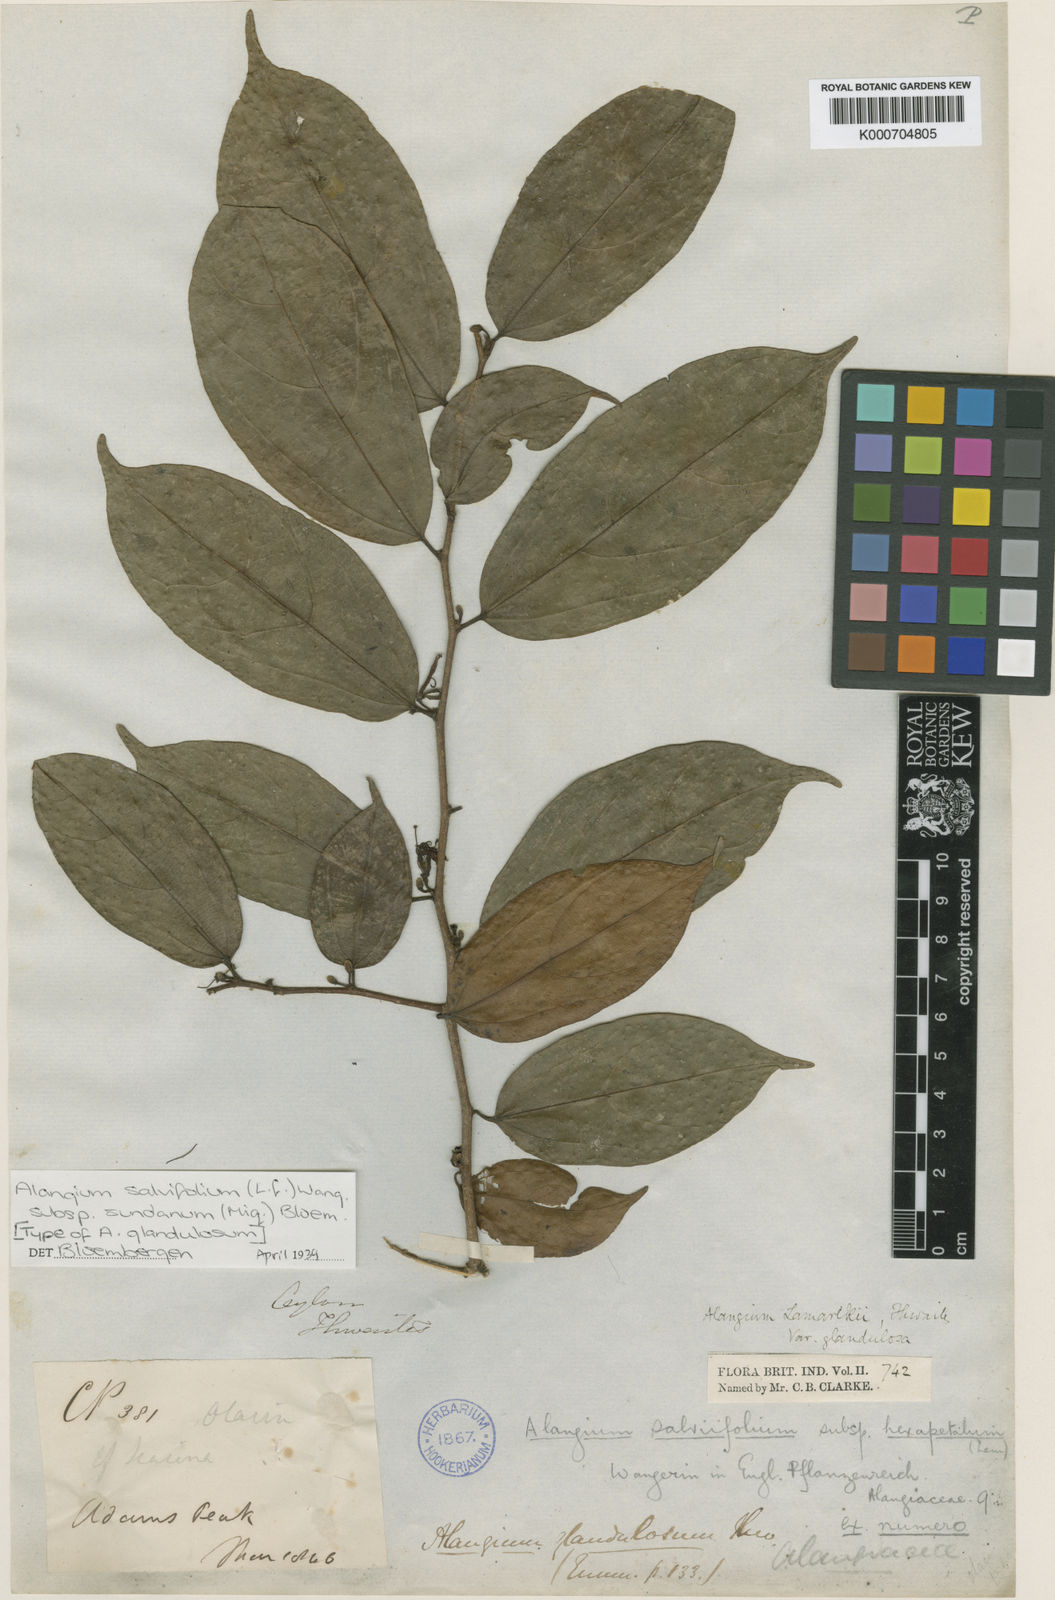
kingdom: Plantae
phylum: Tracheophyta
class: Magnoliopsida
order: Cornales
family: Cornaceae
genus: Alangium
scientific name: Alangium salviifolium
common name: Sage-leaf alangium
